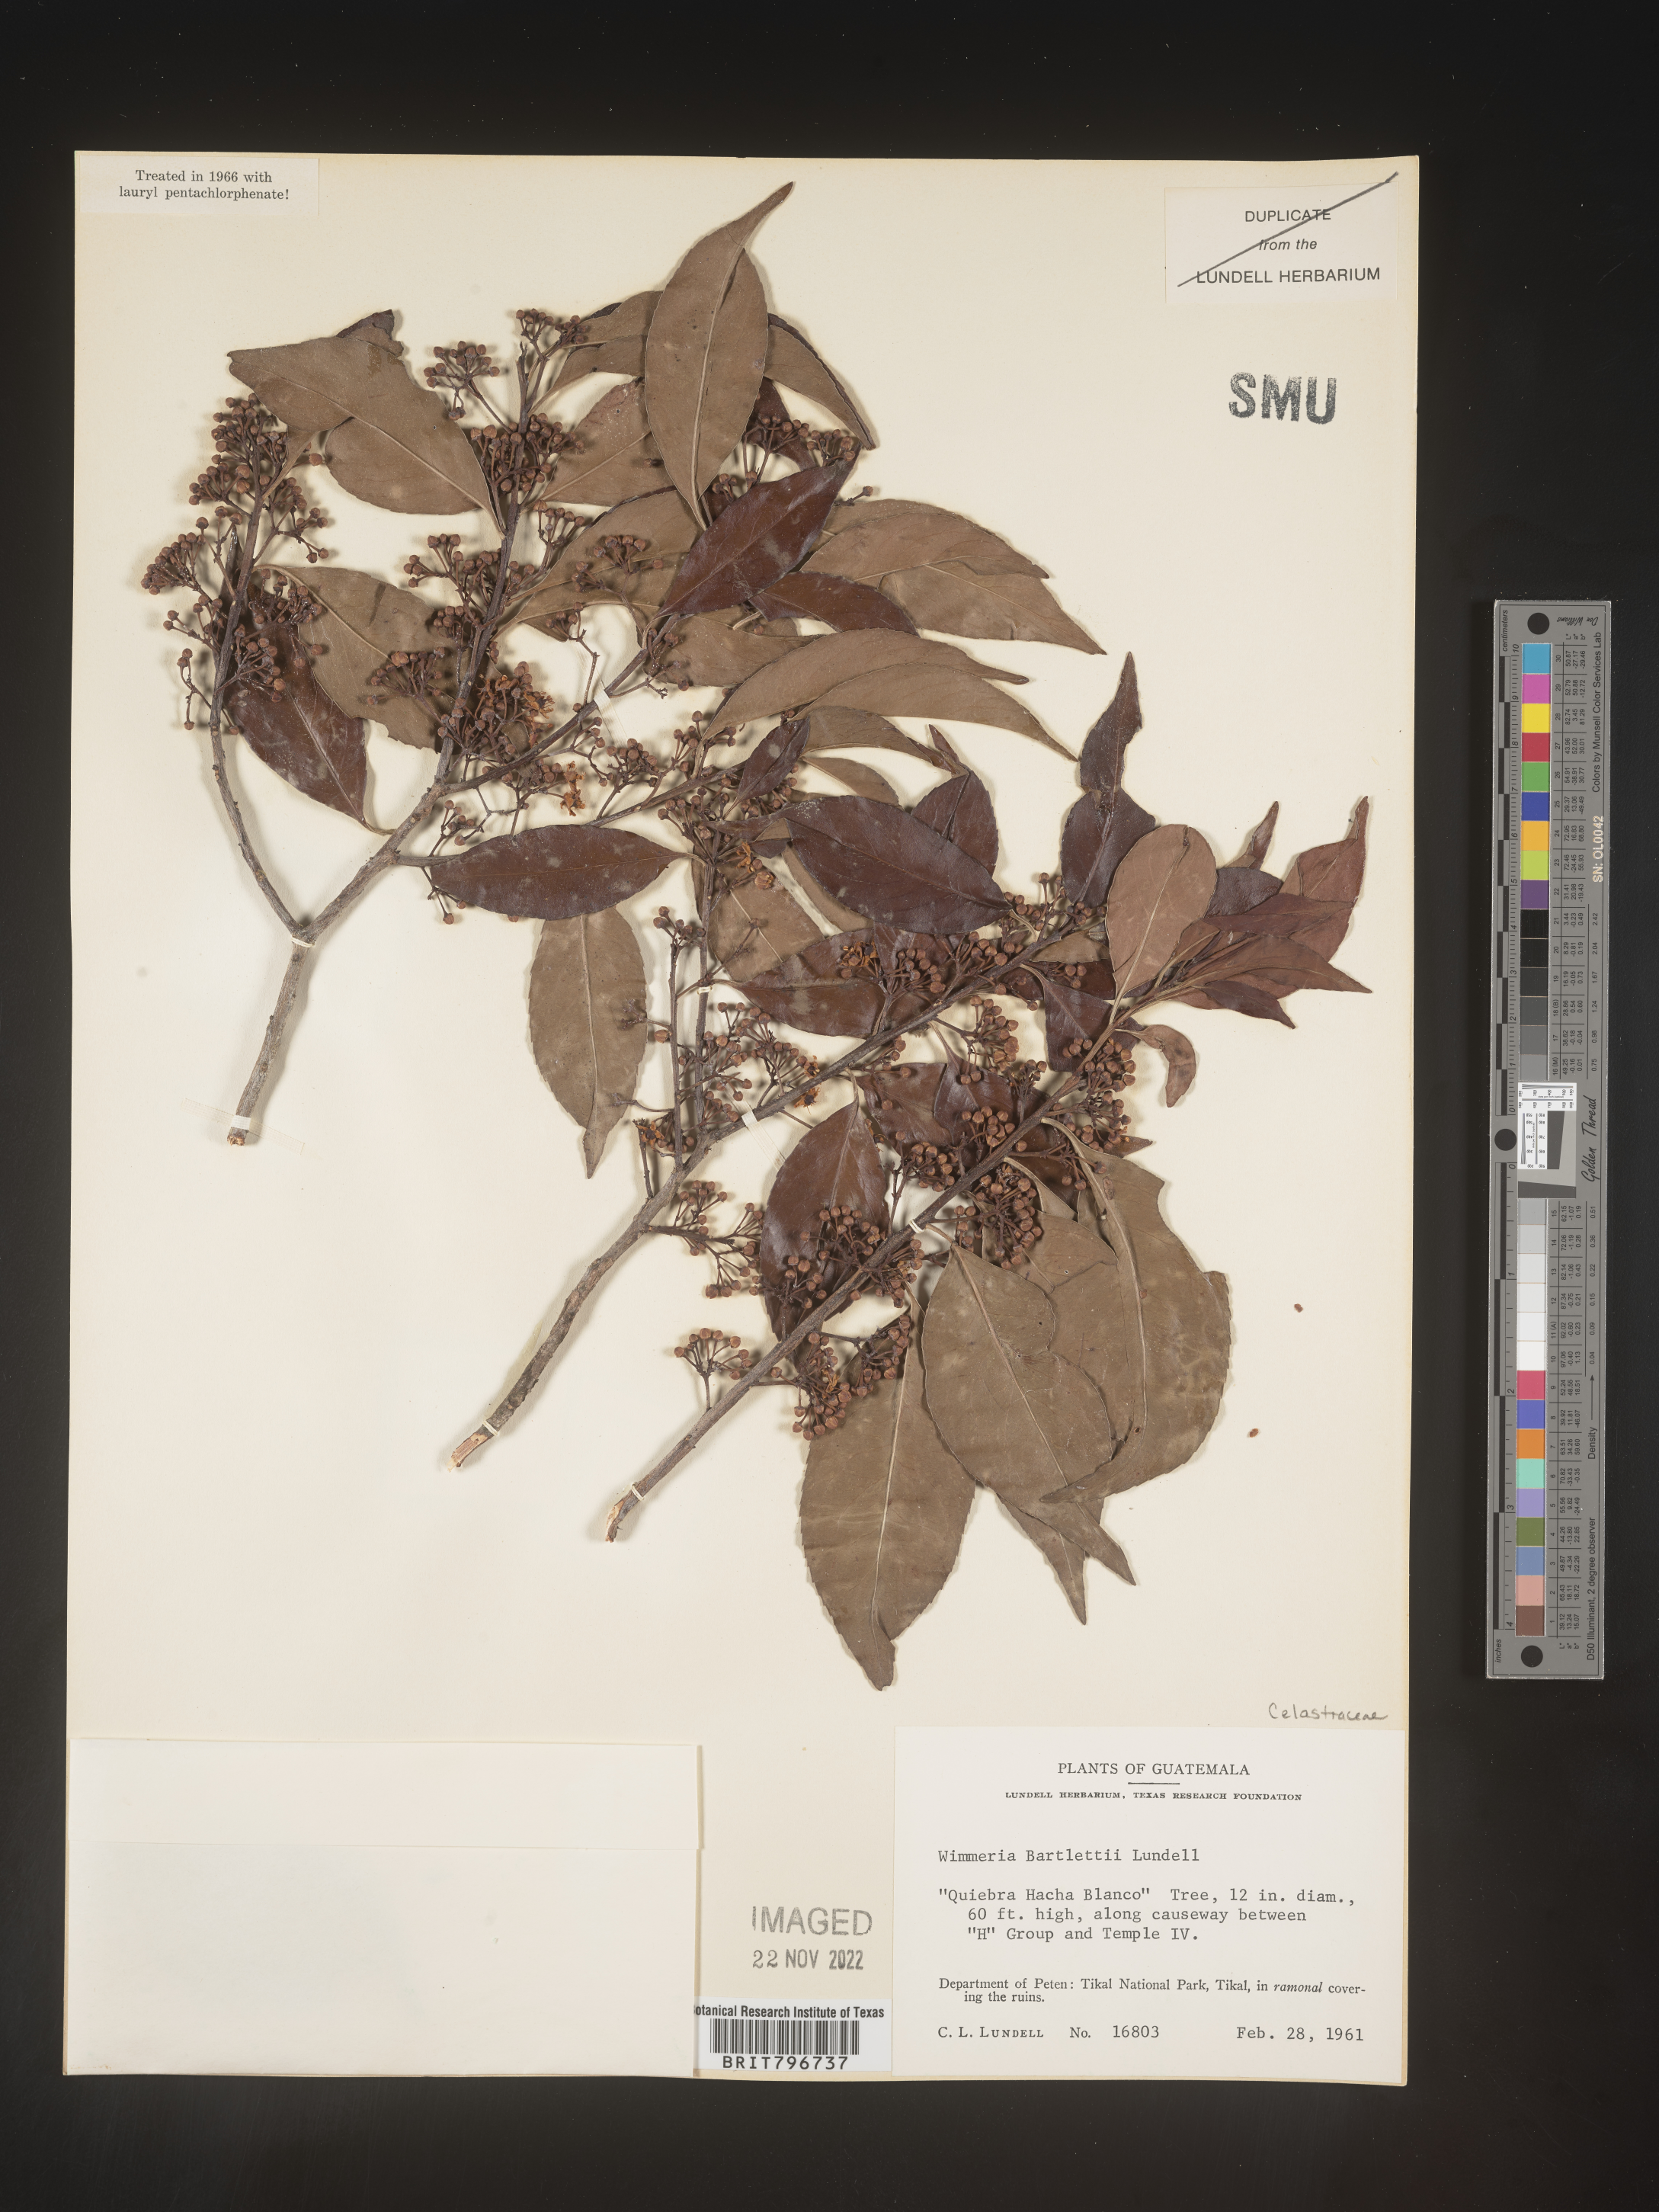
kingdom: Plantae
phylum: Tracheophyta
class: Magnoliopsida
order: Celastrales
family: Celastraceae
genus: Wimmeria
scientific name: Wimmeria
